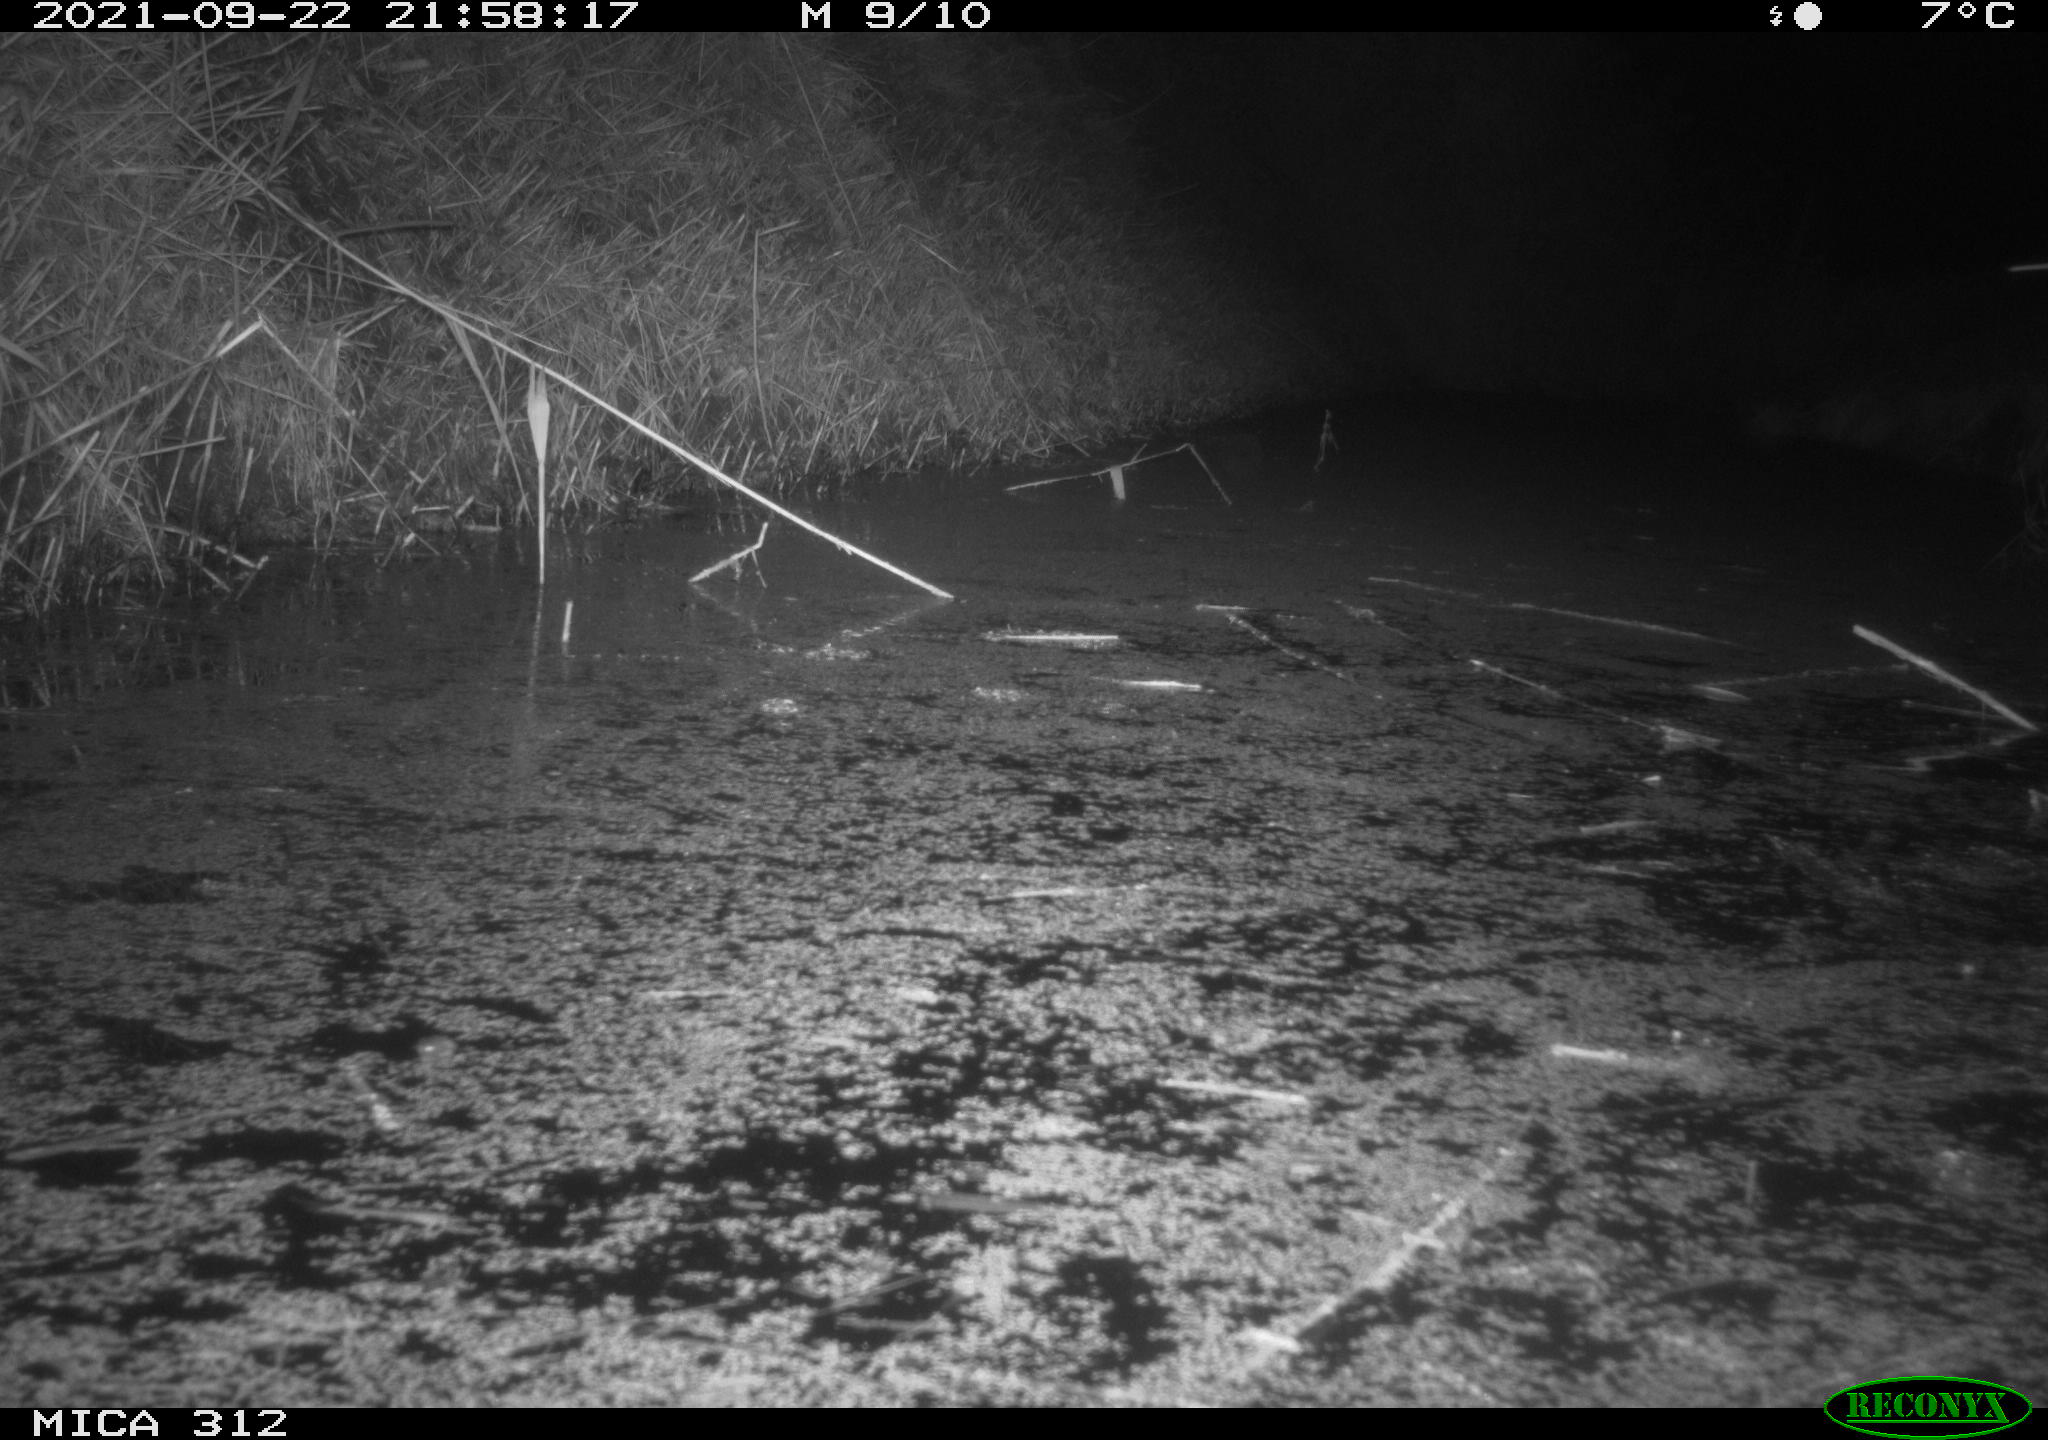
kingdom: Animalia
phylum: Chordata
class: Mammalia
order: Rodentia
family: Muridae
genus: Rattus
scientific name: Rattus norvegicus
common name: Brown rat
